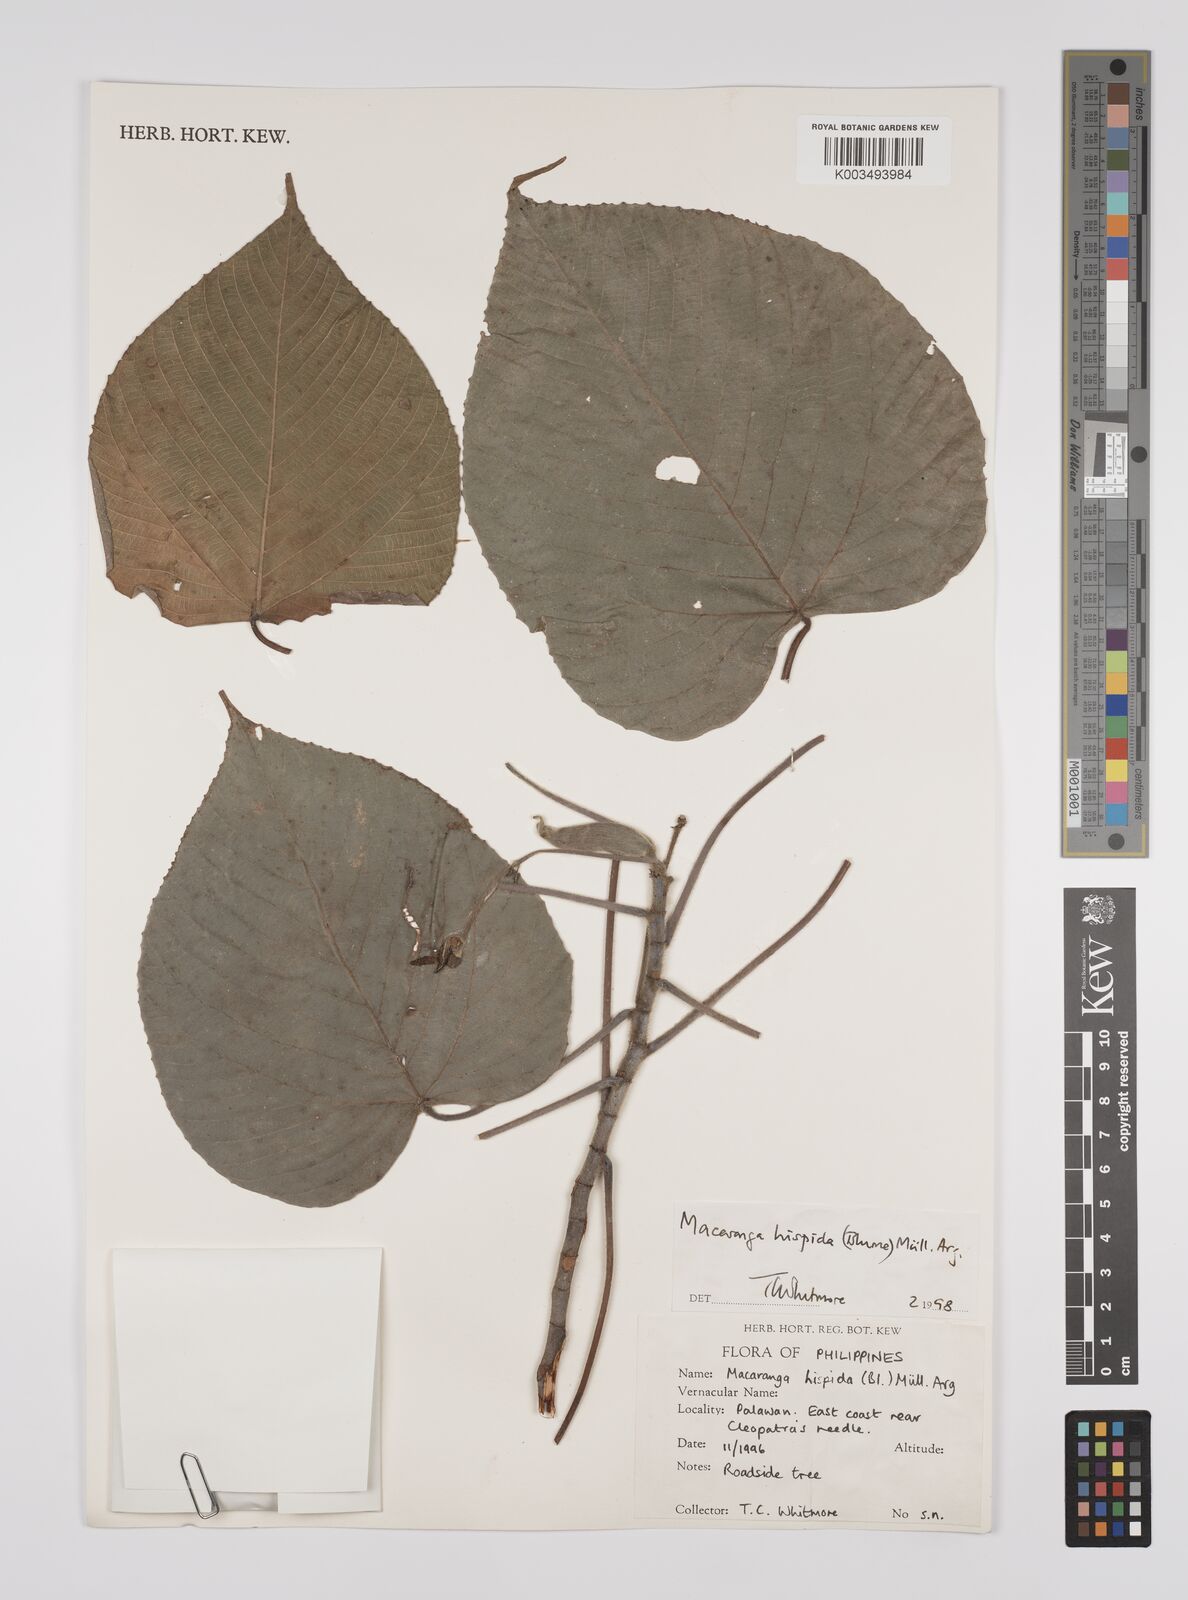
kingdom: Plantae
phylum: Tracheophyta
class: Magnoliopsida
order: Malpighiales
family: Euphorbiaceae
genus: Macaranga
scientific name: Macaranga hispida
